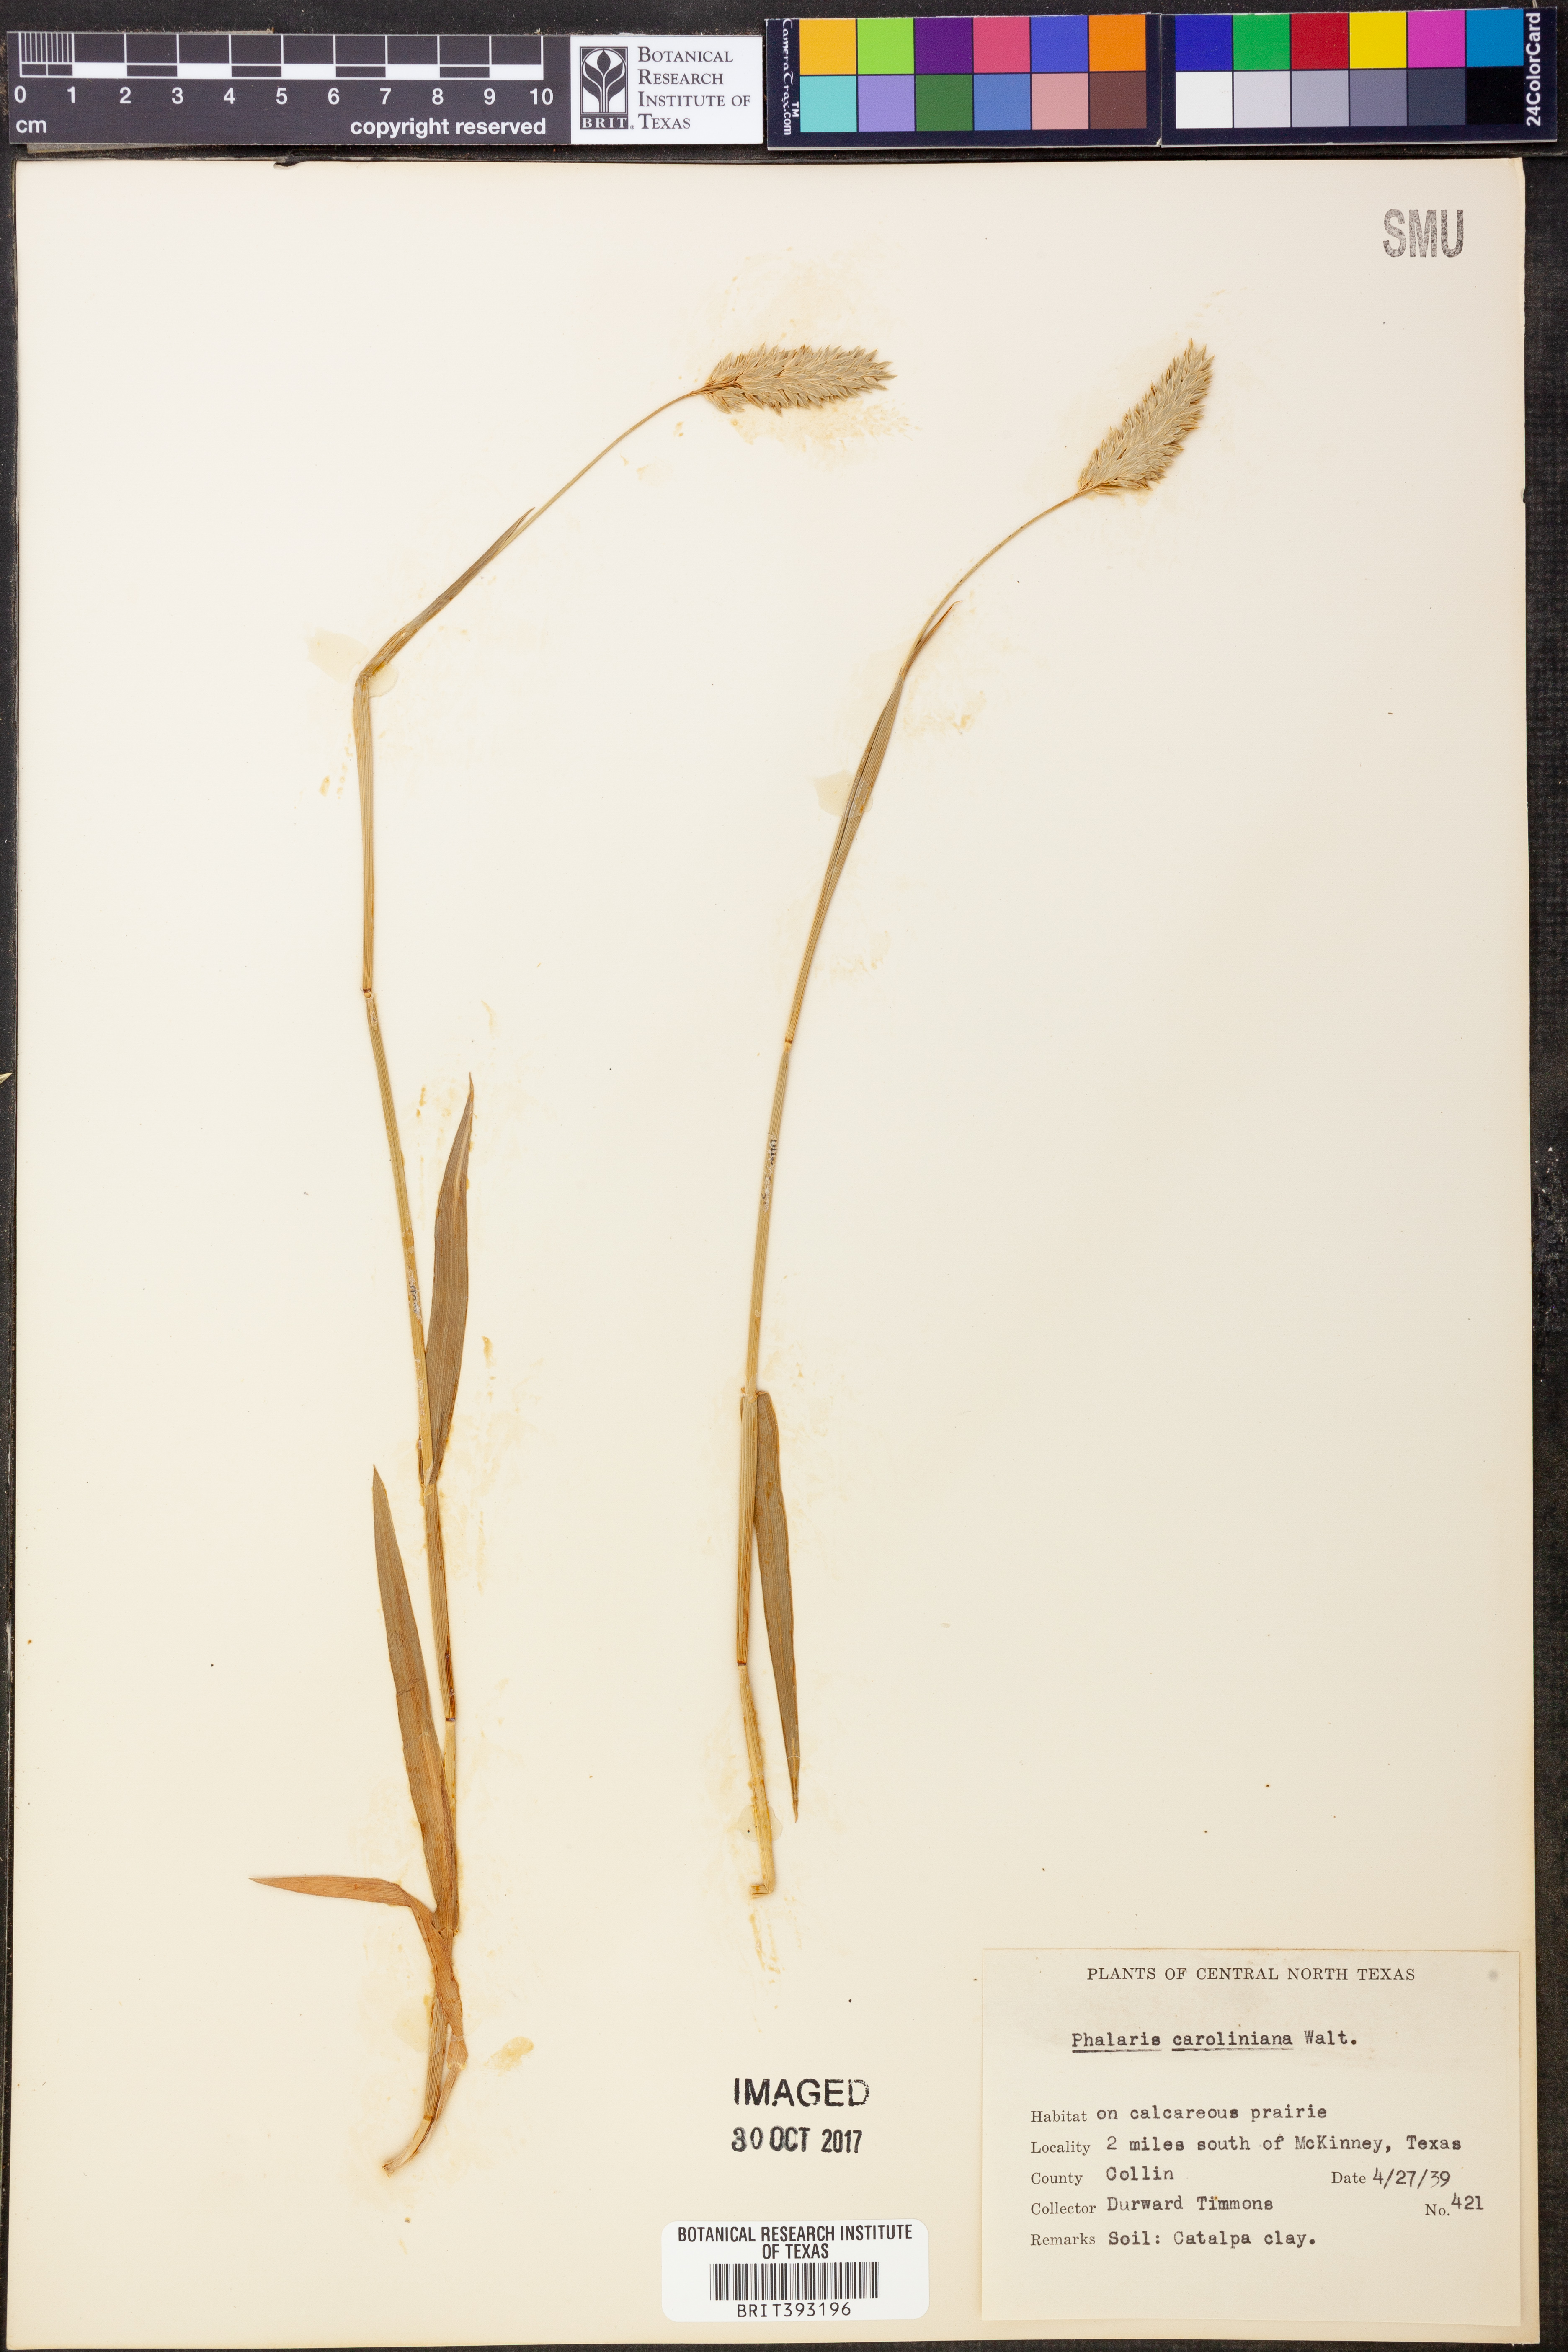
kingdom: Plantae
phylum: Tracheophyta
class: Liliopsida
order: Poales
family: Poaceae
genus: Phalaris
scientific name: Phalaris caroliniana
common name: May grass
